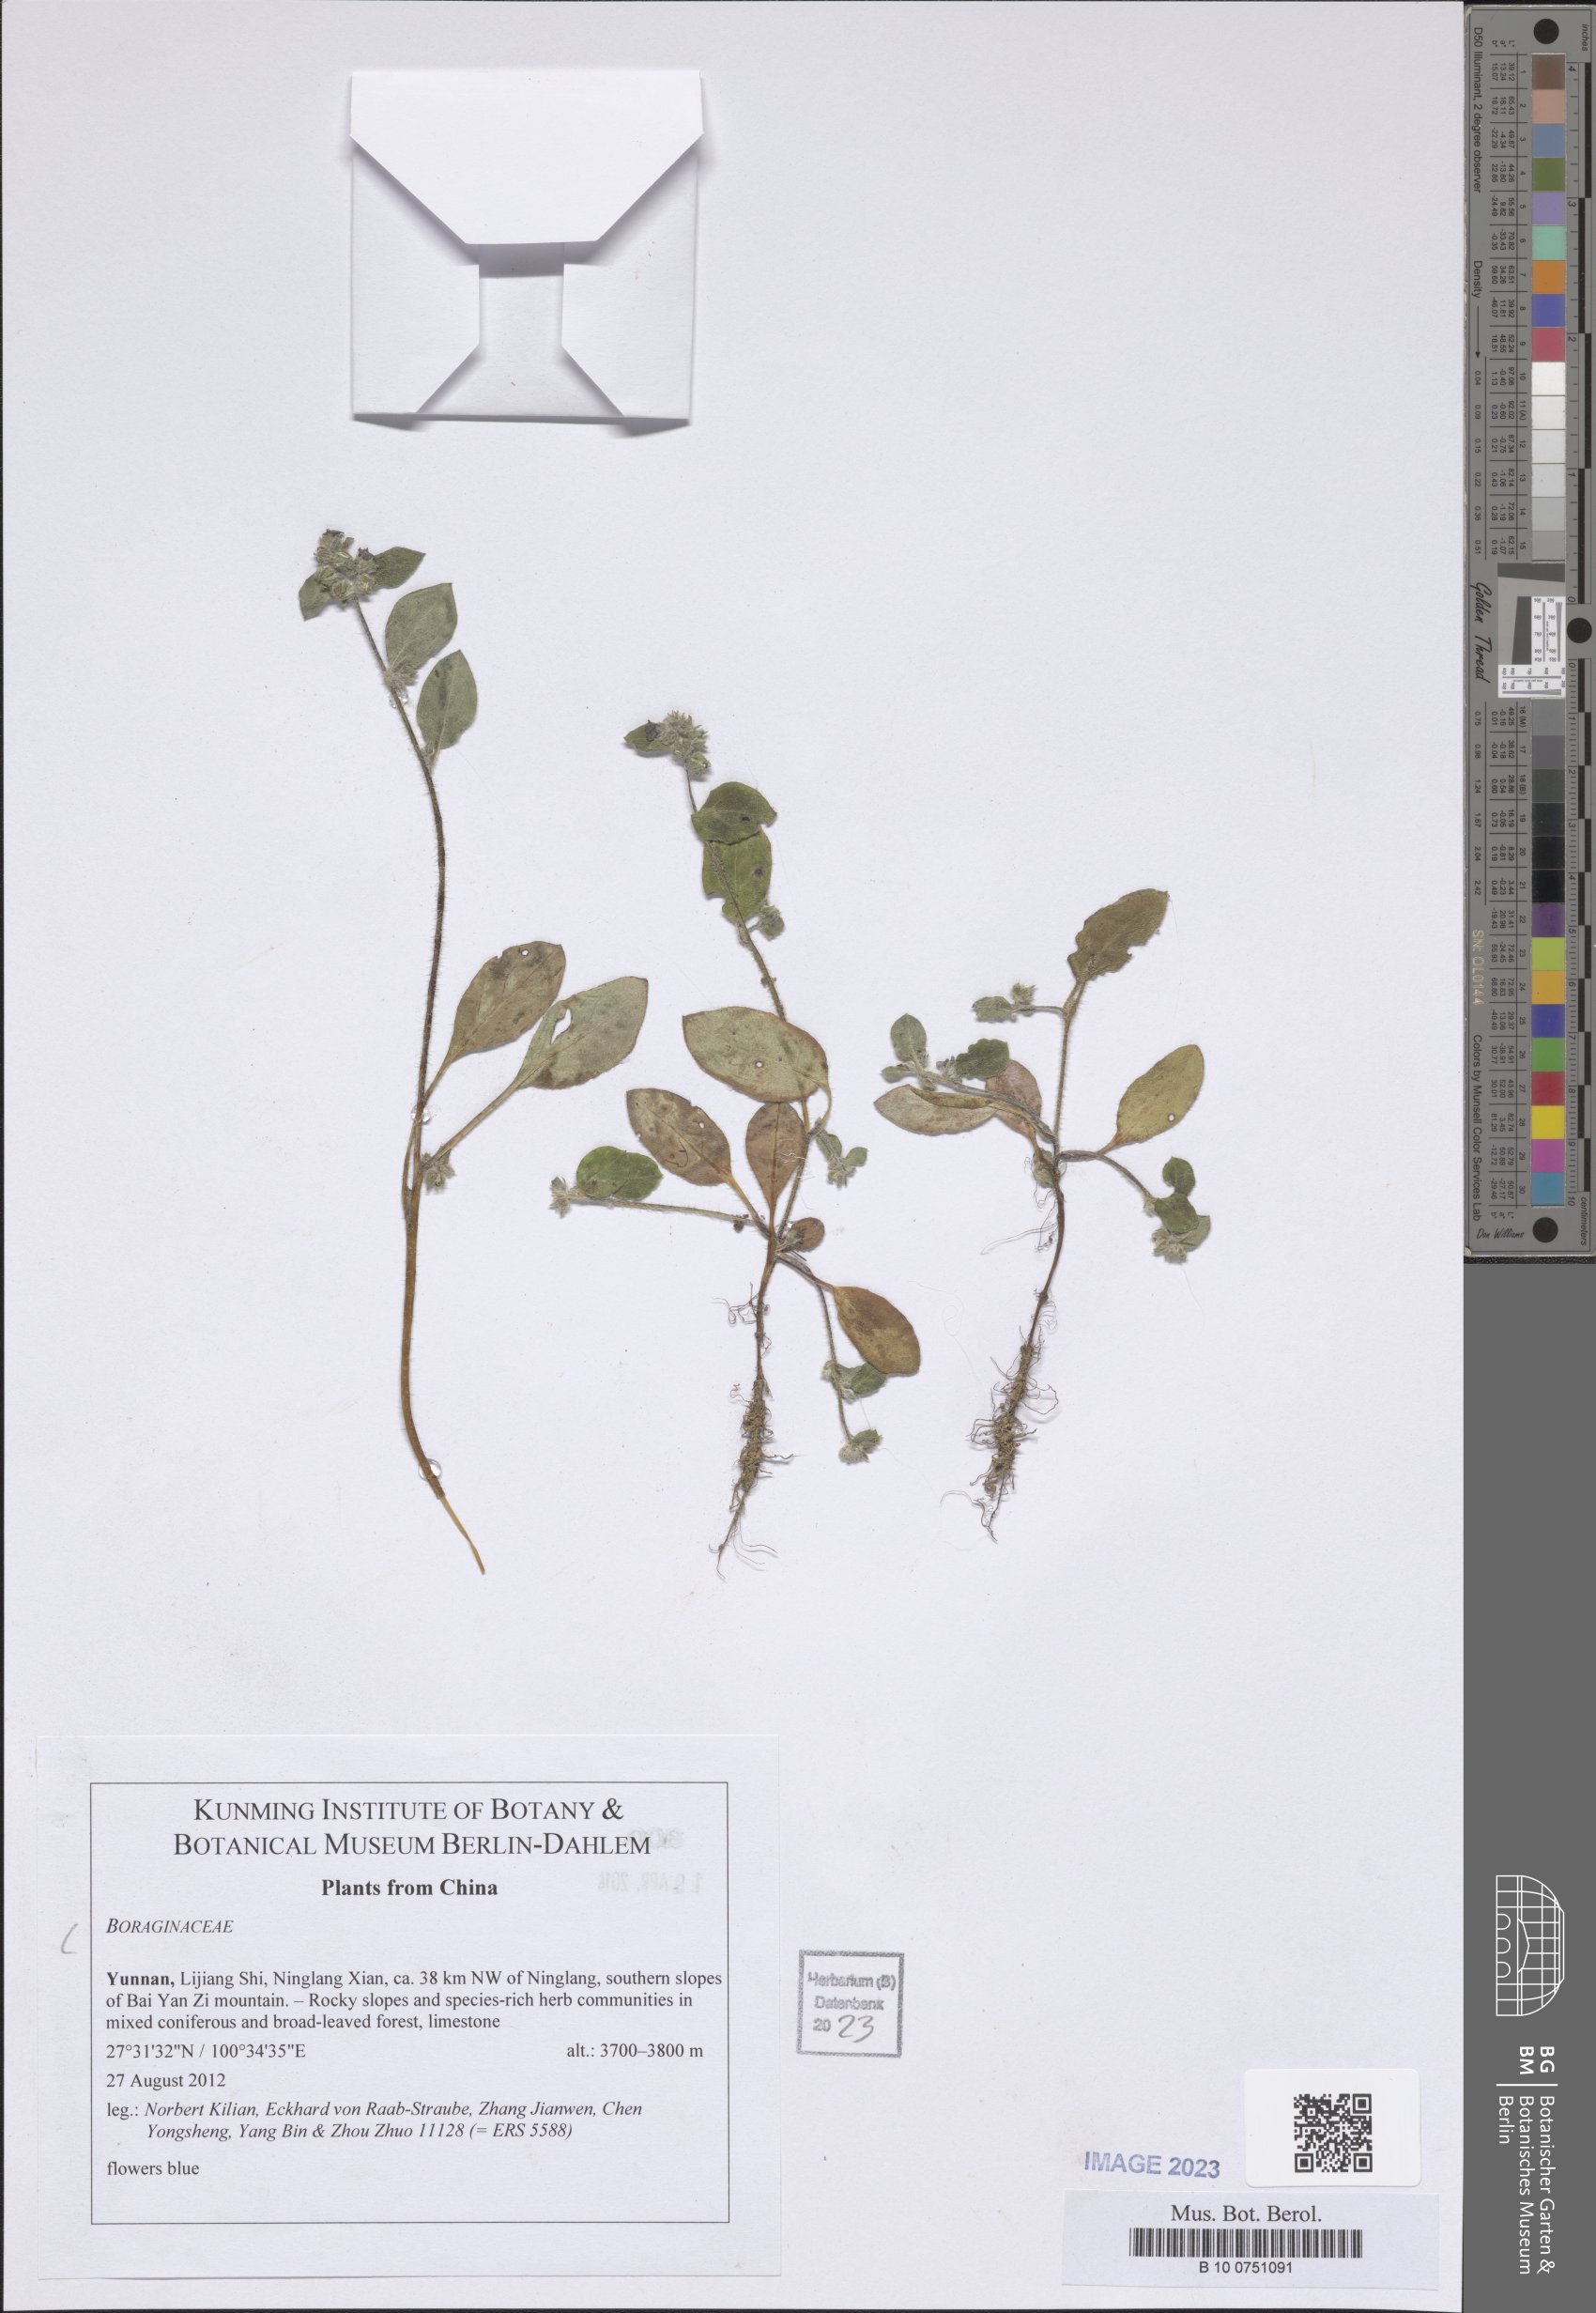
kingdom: Plantae
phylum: Tracheophyta
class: Magnoliopsida
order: Boraginales
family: Boraginaceae
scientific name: Boraginaceae
